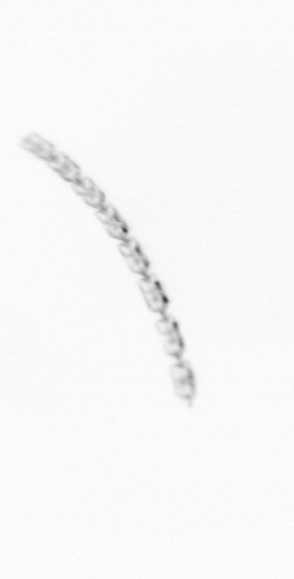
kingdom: Chromista
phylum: Ochrophyta
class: Bacillariophyceae
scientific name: Bacillariophyceae
